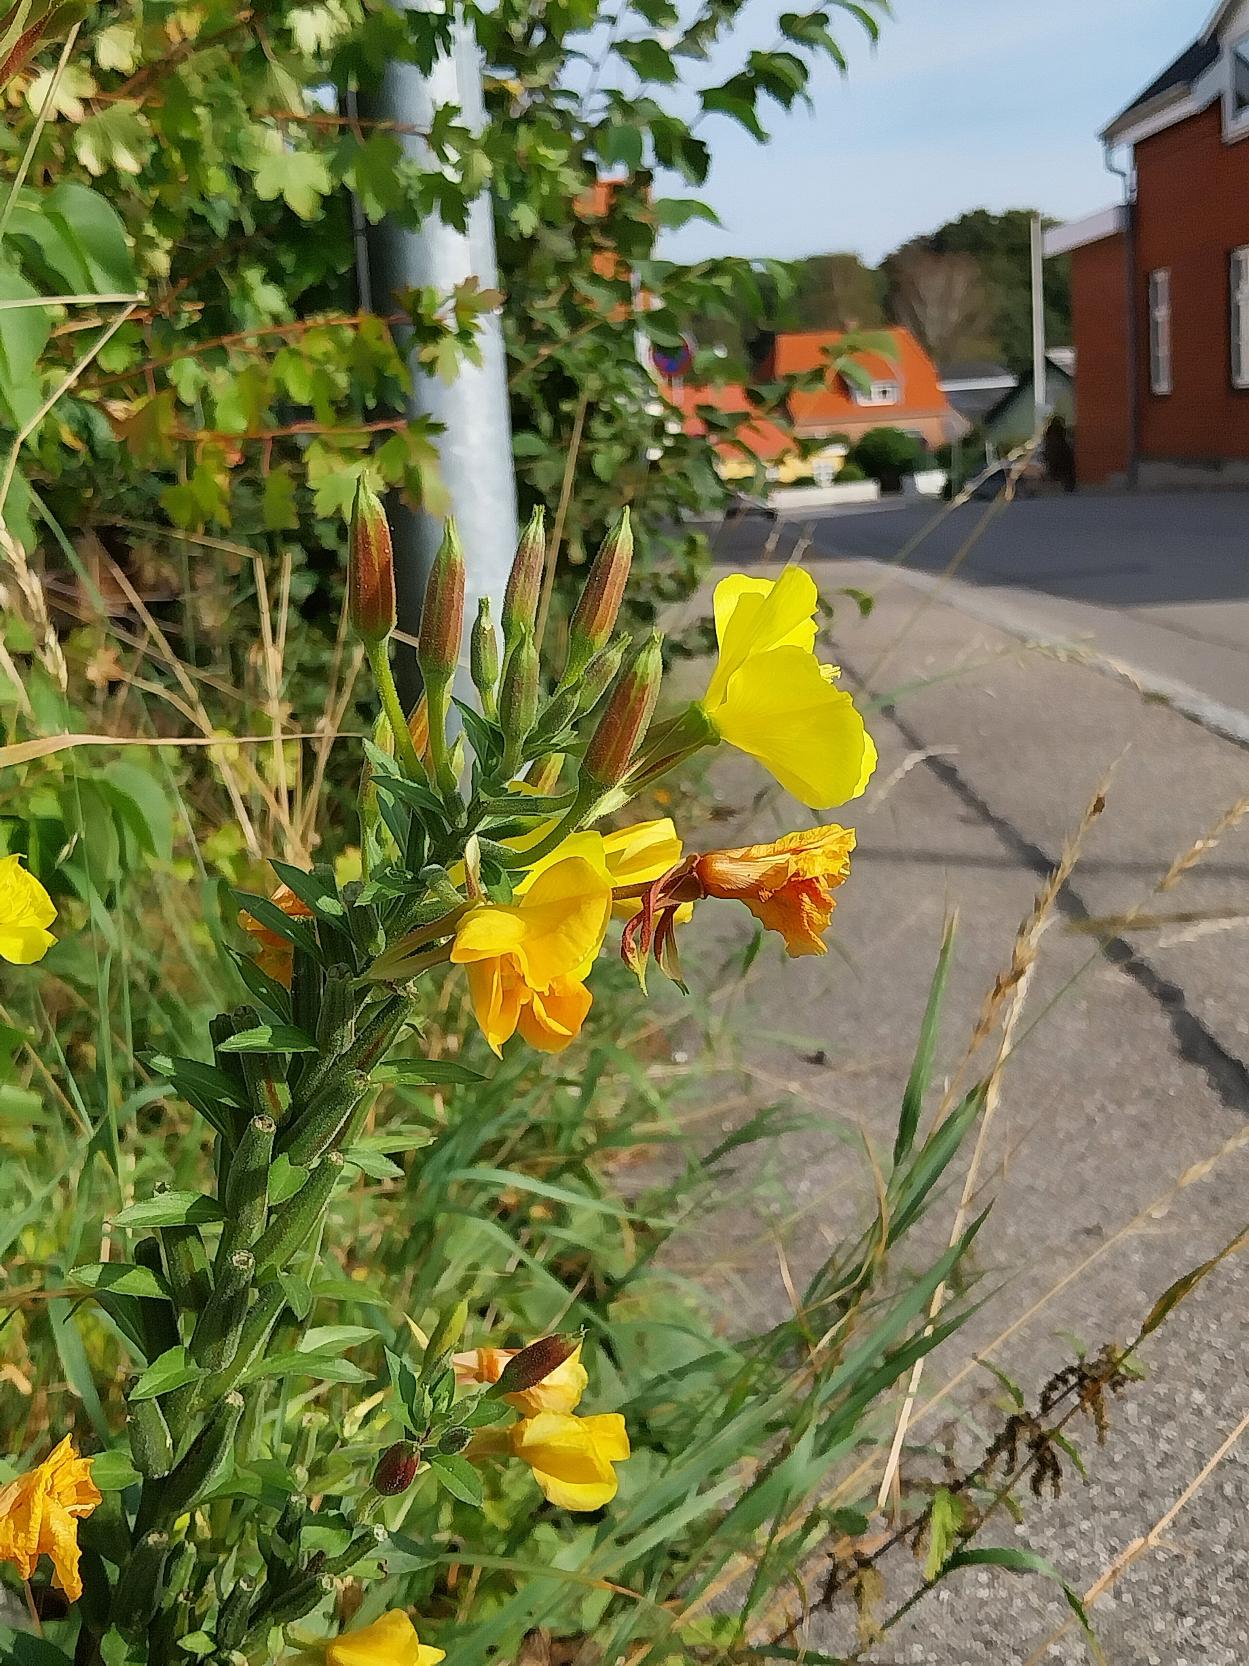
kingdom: Plantae
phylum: Tracheophyta
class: Magnoliopsida
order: Myrtales
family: Onagraceae
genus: Oenothera
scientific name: Oenothera fallax
